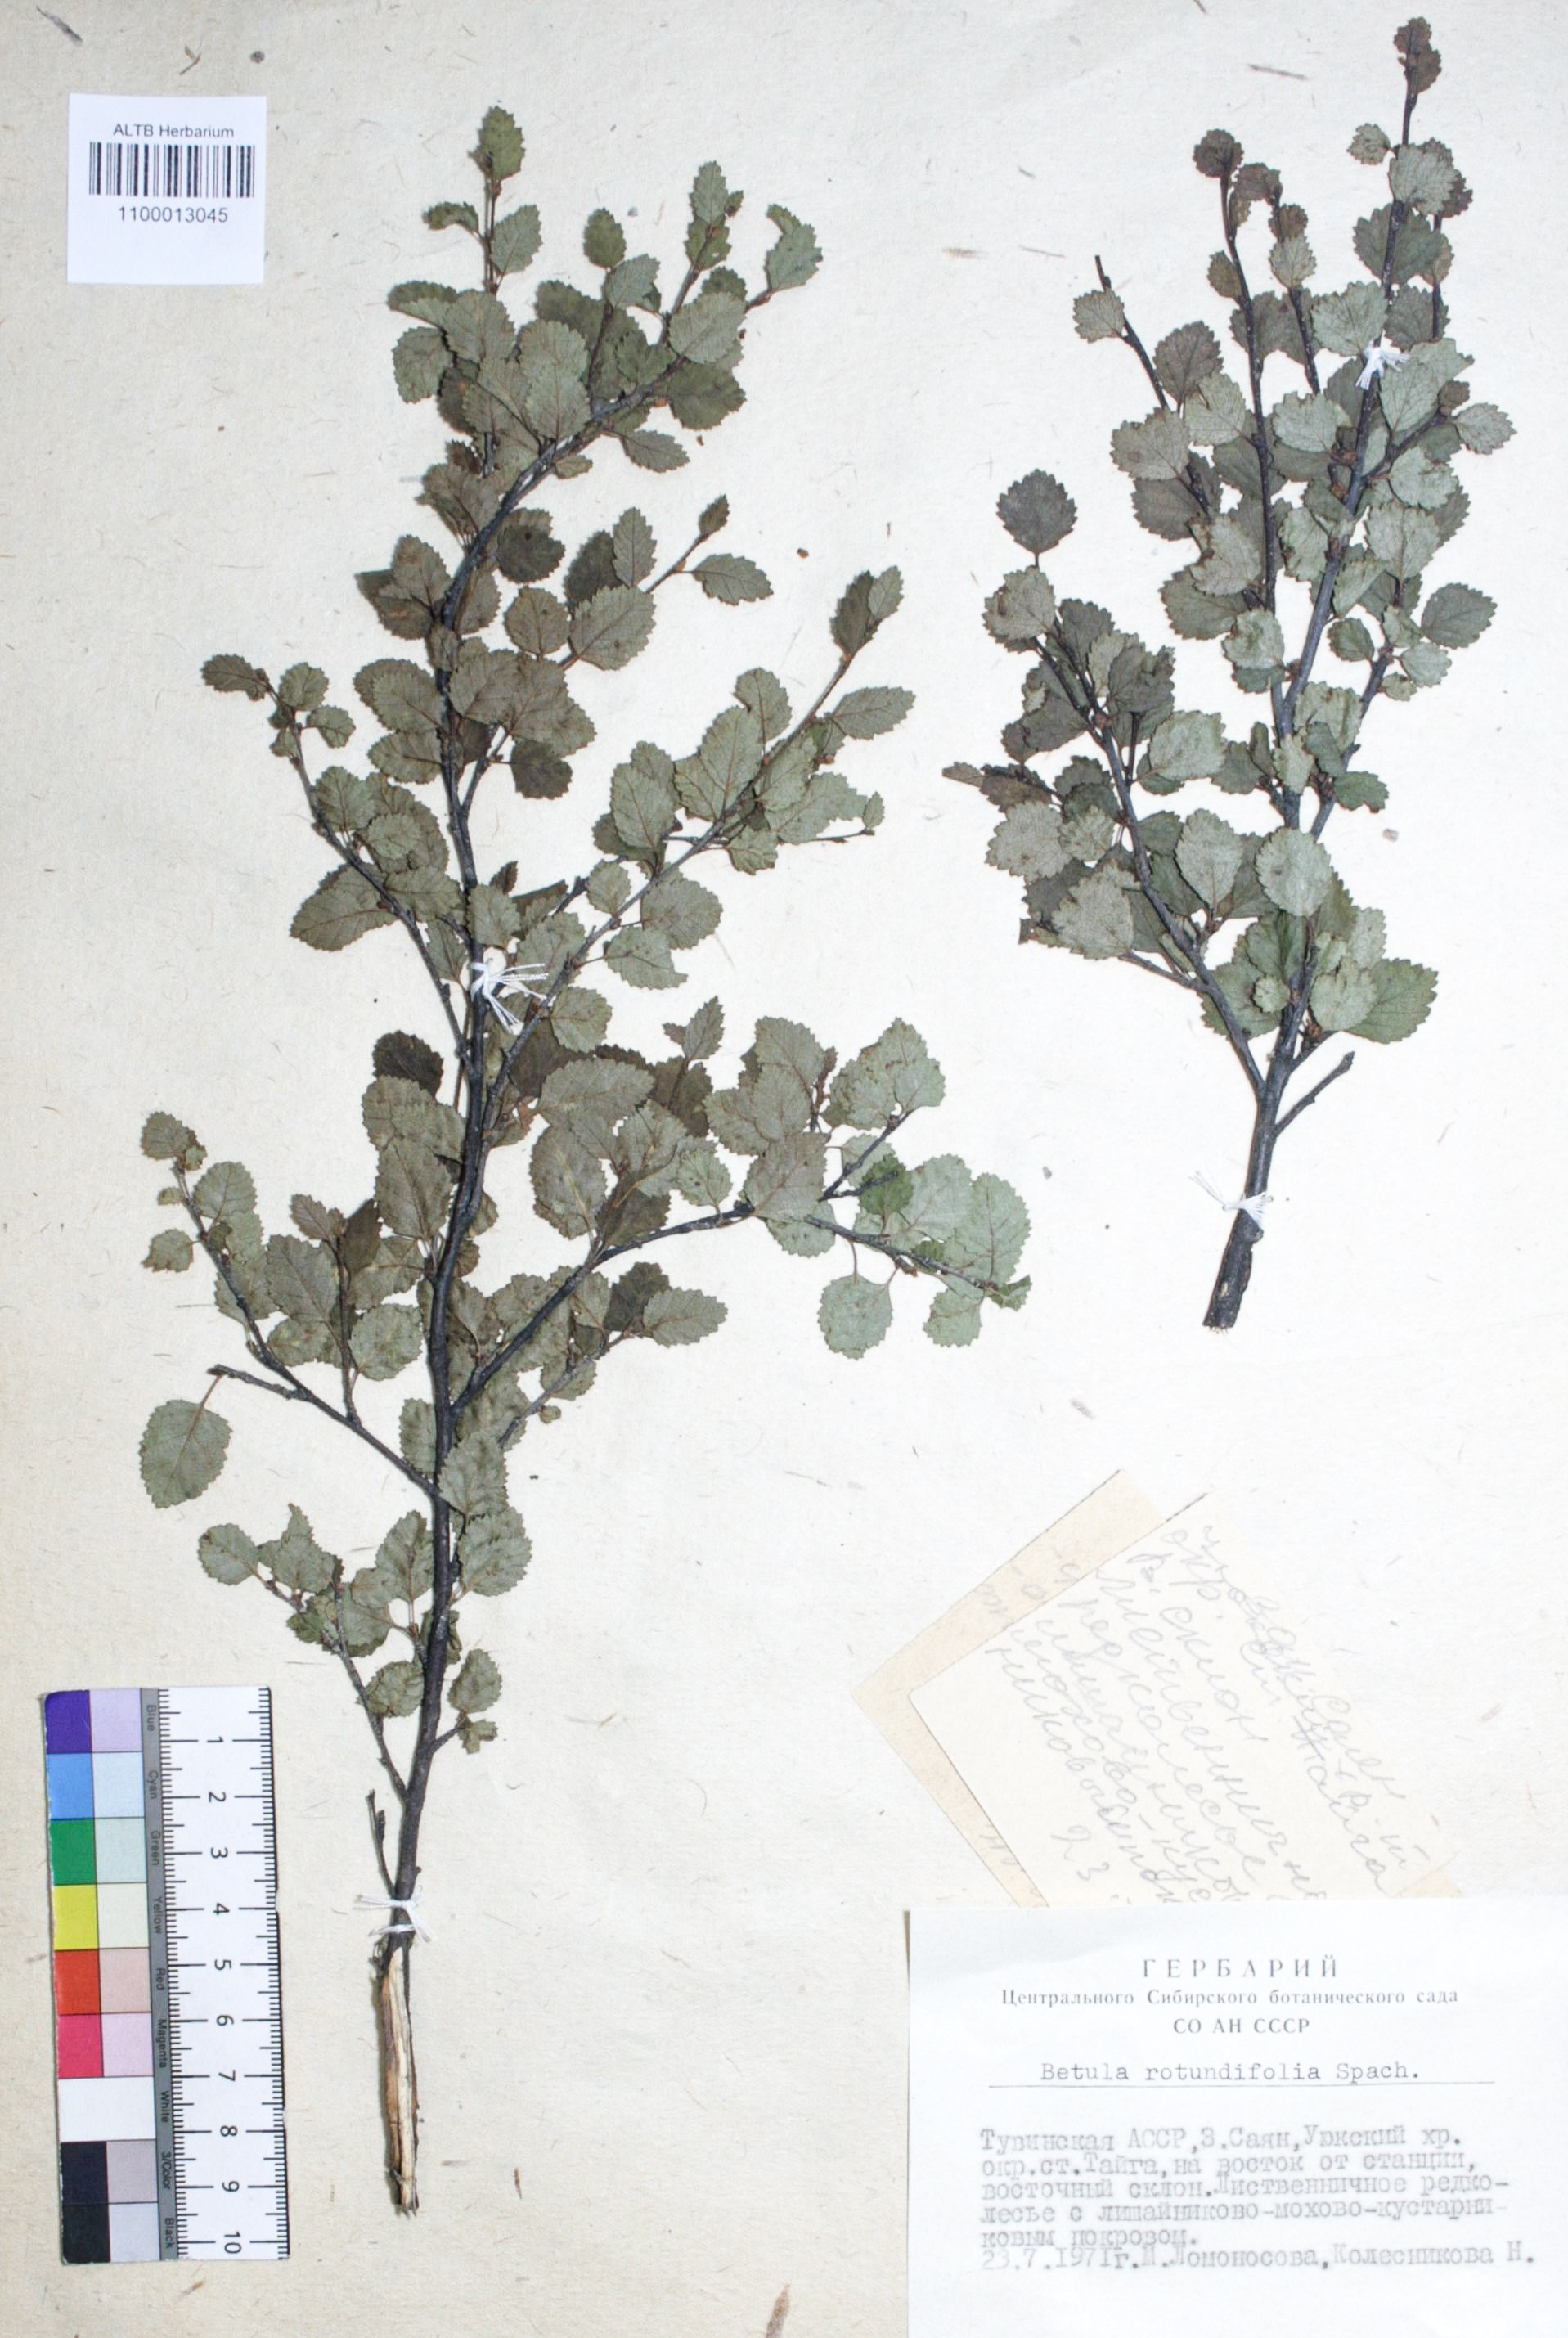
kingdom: Plantae
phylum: Tracheophyta
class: Magnoliopsida
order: Fagales
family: Betulaceae
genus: Betula
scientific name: Betula glandulosa
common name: Dwarf birch
